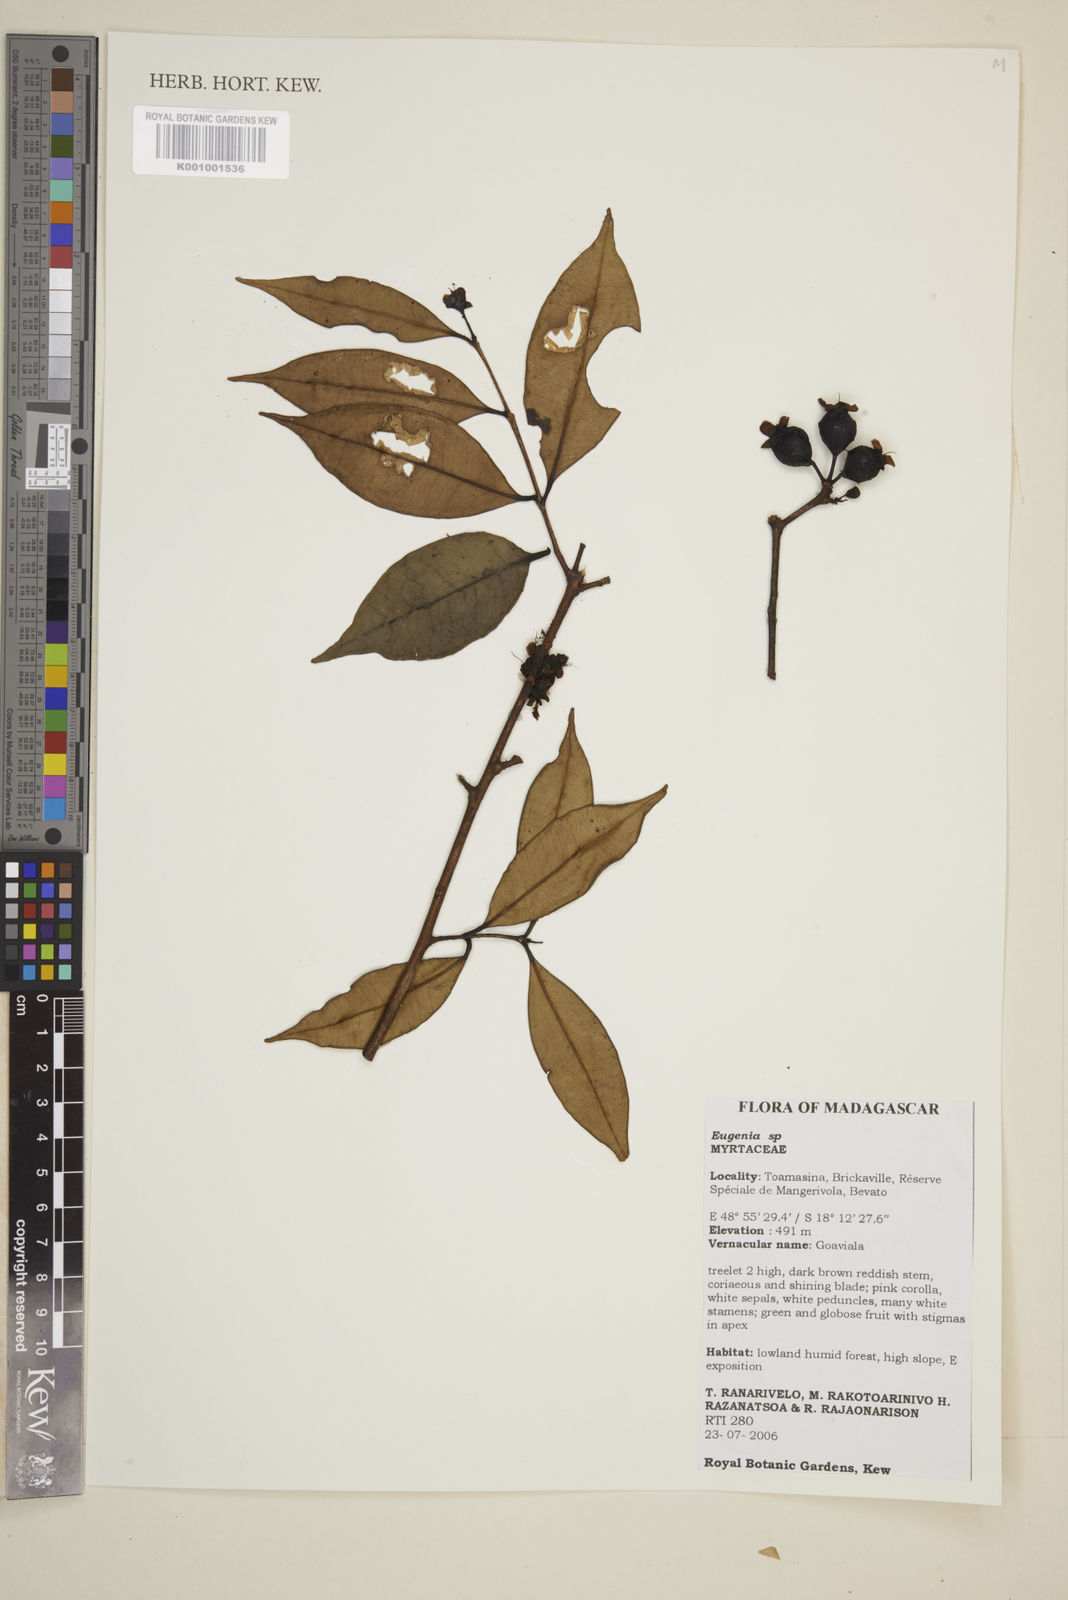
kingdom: Plantae
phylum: Tracheophyta
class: Magnoliopsida
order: Myrtales
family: Myrtaceae
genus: Eugenia
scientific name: Eugenia
